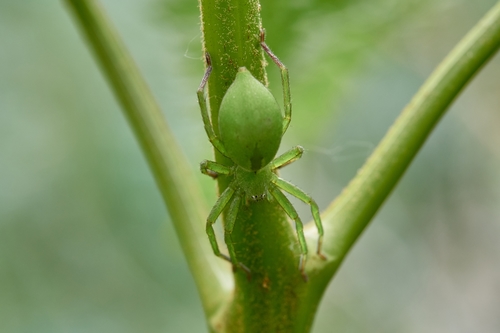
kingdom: Animalia
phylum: Arthropoda
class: Arachnida
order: Araneae
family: Sparassidae
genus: Micrommata
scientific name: Micrommata ligurina
